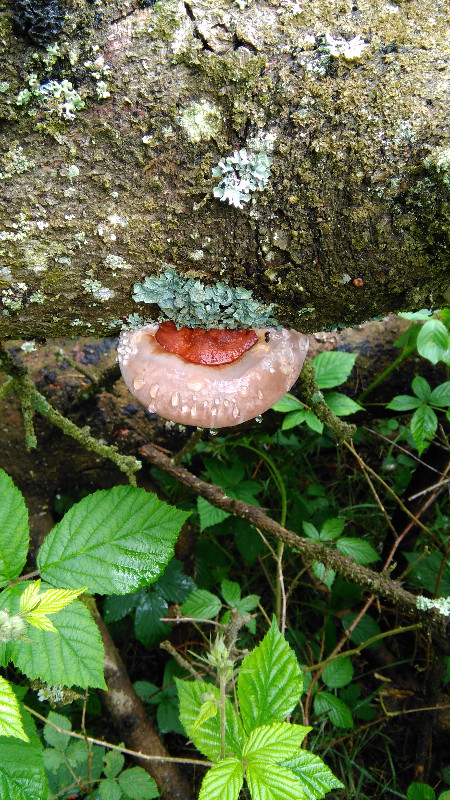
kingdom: Fungi
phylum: Basidiomycota
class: Agaricomycetes
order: Polyporales
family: Fomitopsidaceae
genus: Fomitopsis
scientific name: Fomitopsis pinicola
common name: randbæltet hovporesvamp
